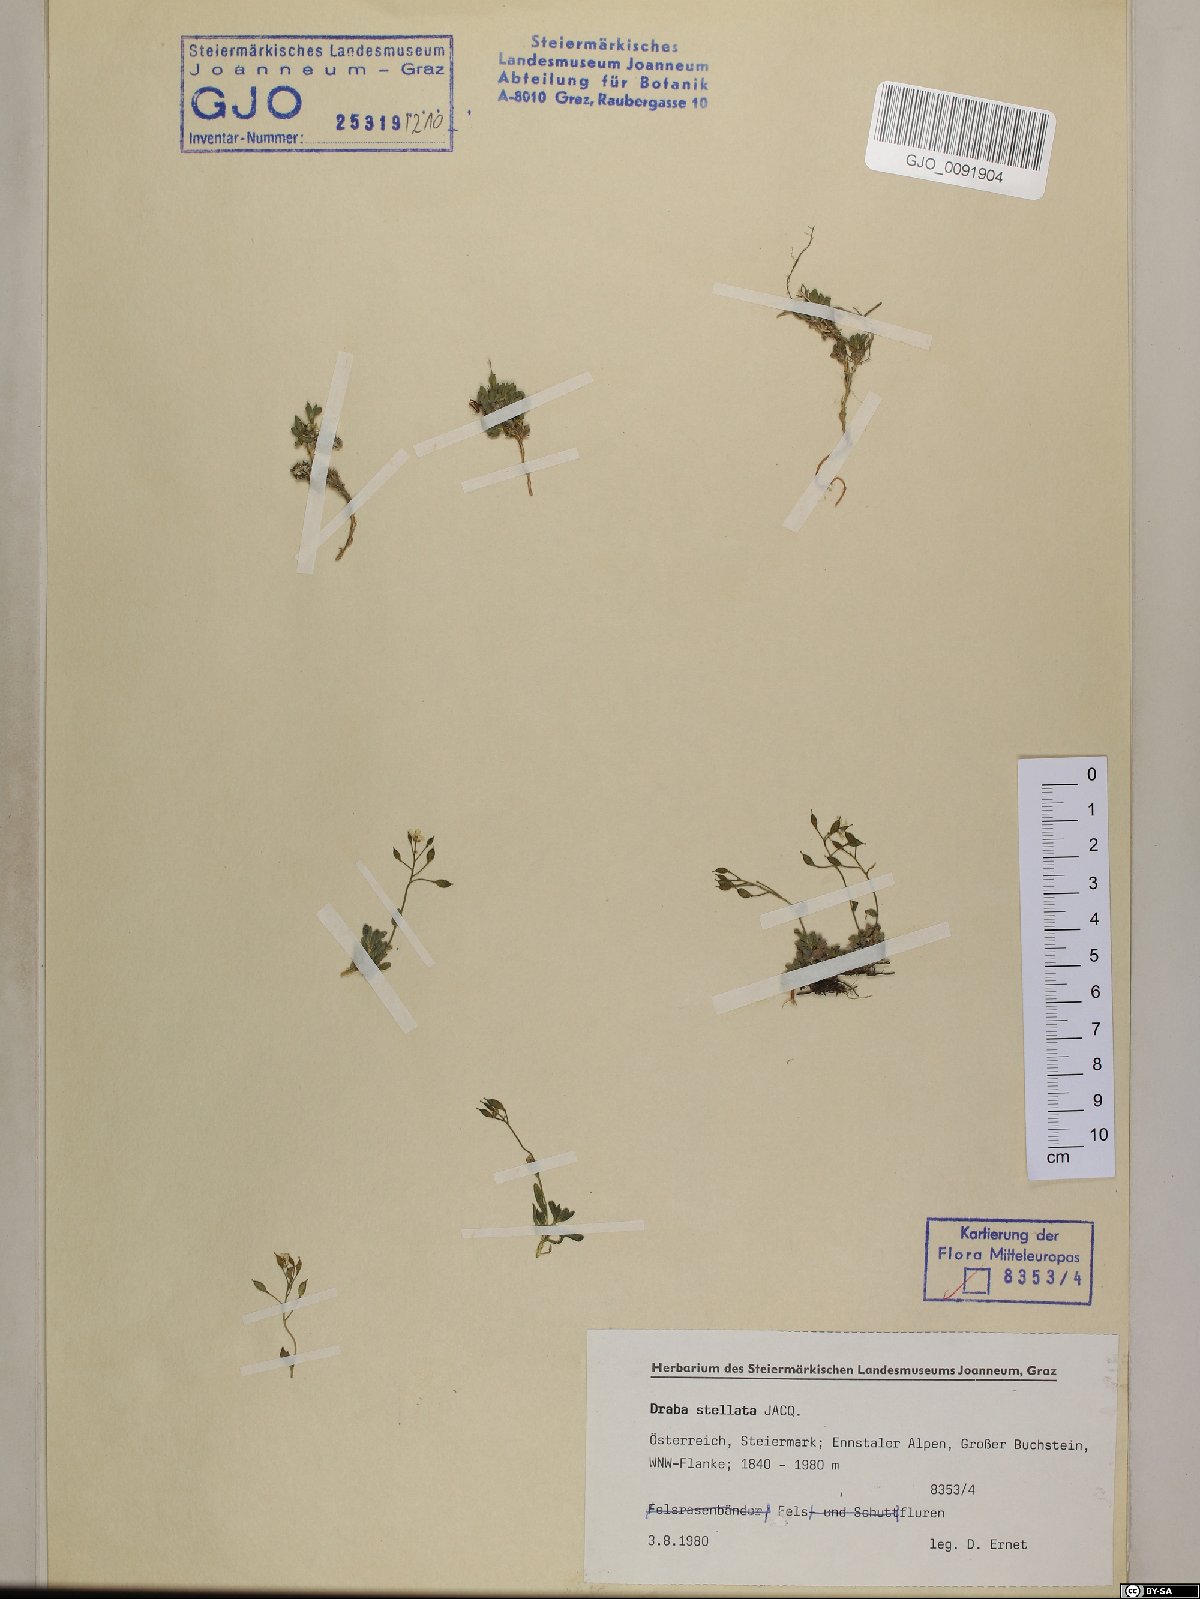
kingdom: Plantae
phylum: Tracheophyta
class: Magnoliopsida
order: Brassicales
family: Brassicaceae
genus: Draba
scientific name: Draba stellata
